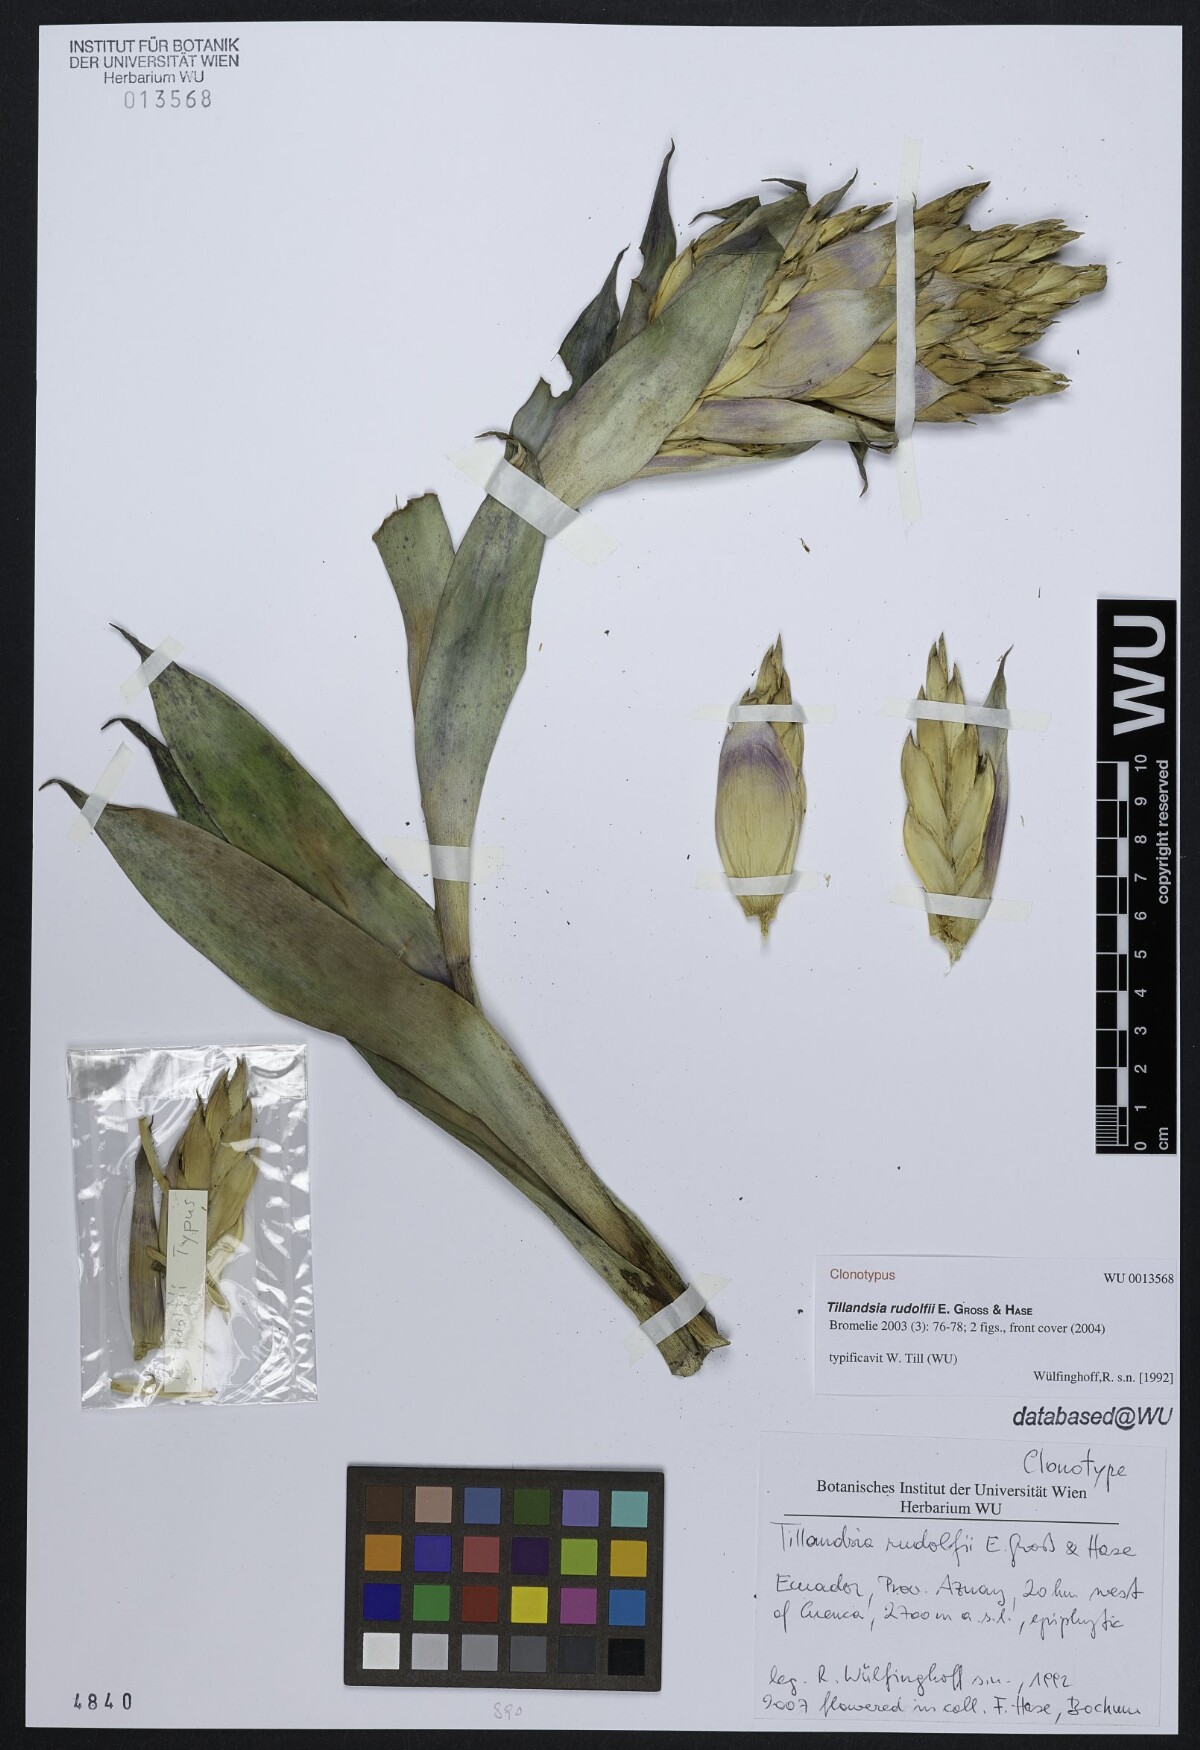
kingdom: Plantae
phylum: Tracheophyta
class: Liliopsida
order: Poales
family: Bromeliaceae
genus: Tillandsia
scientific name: Tillandsia rudolfii
